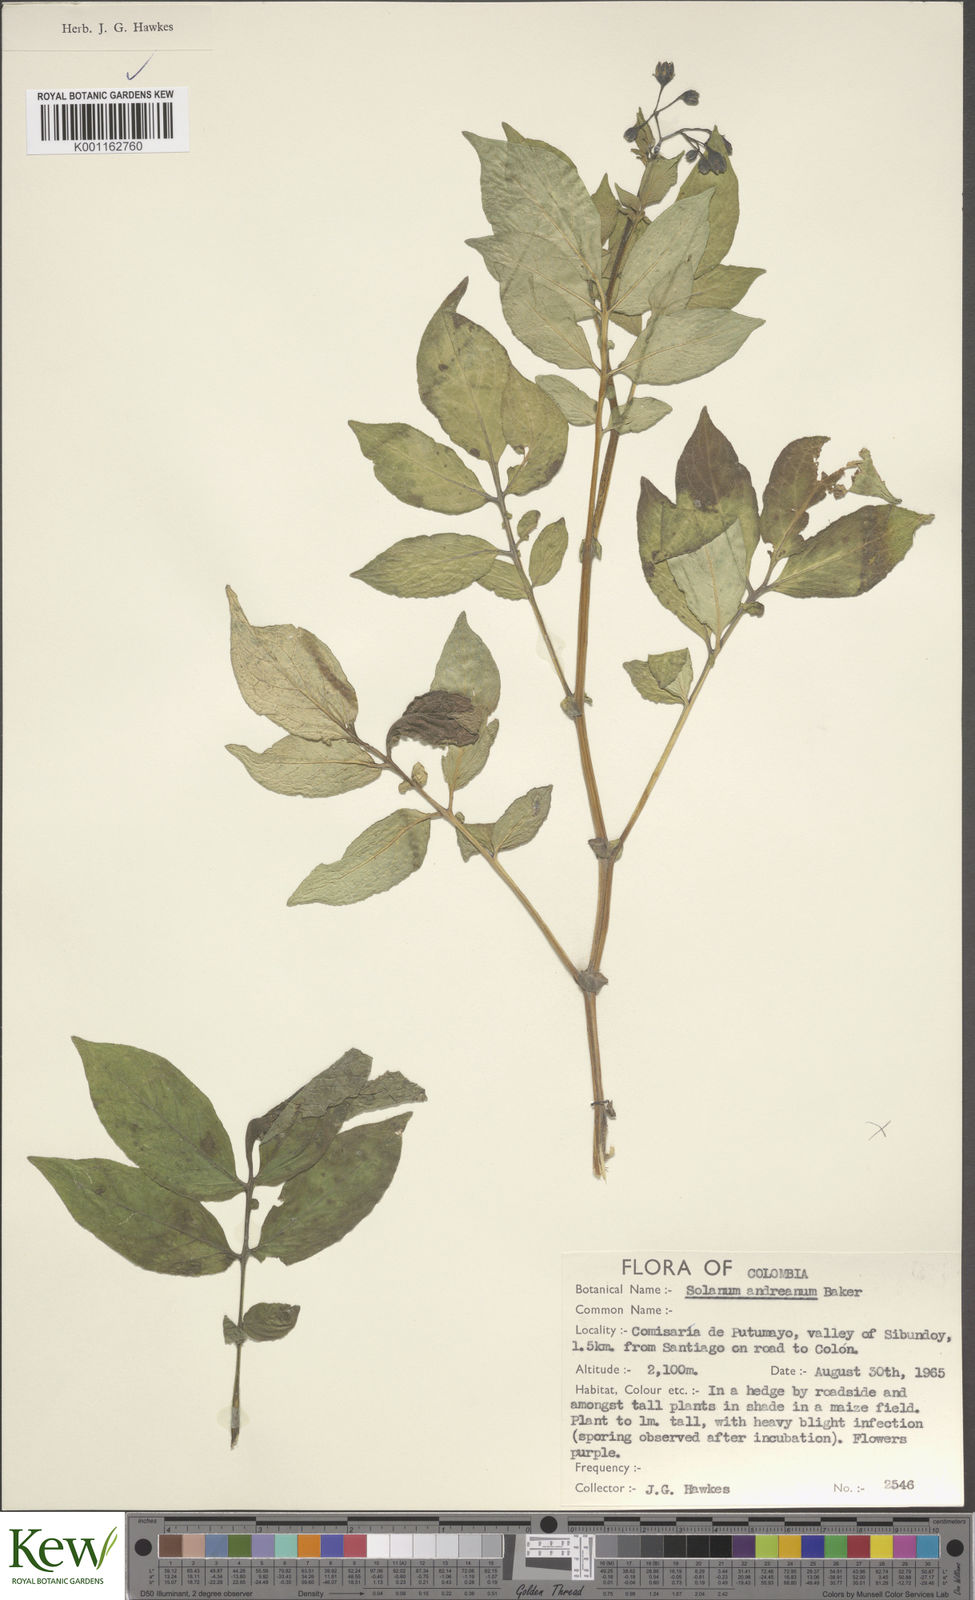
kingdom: Plantae
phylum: Tracheophyta
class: Magnoliopsida
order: Solanales
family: Solanaceae
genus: Solanum
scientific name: Solanum andreanum
